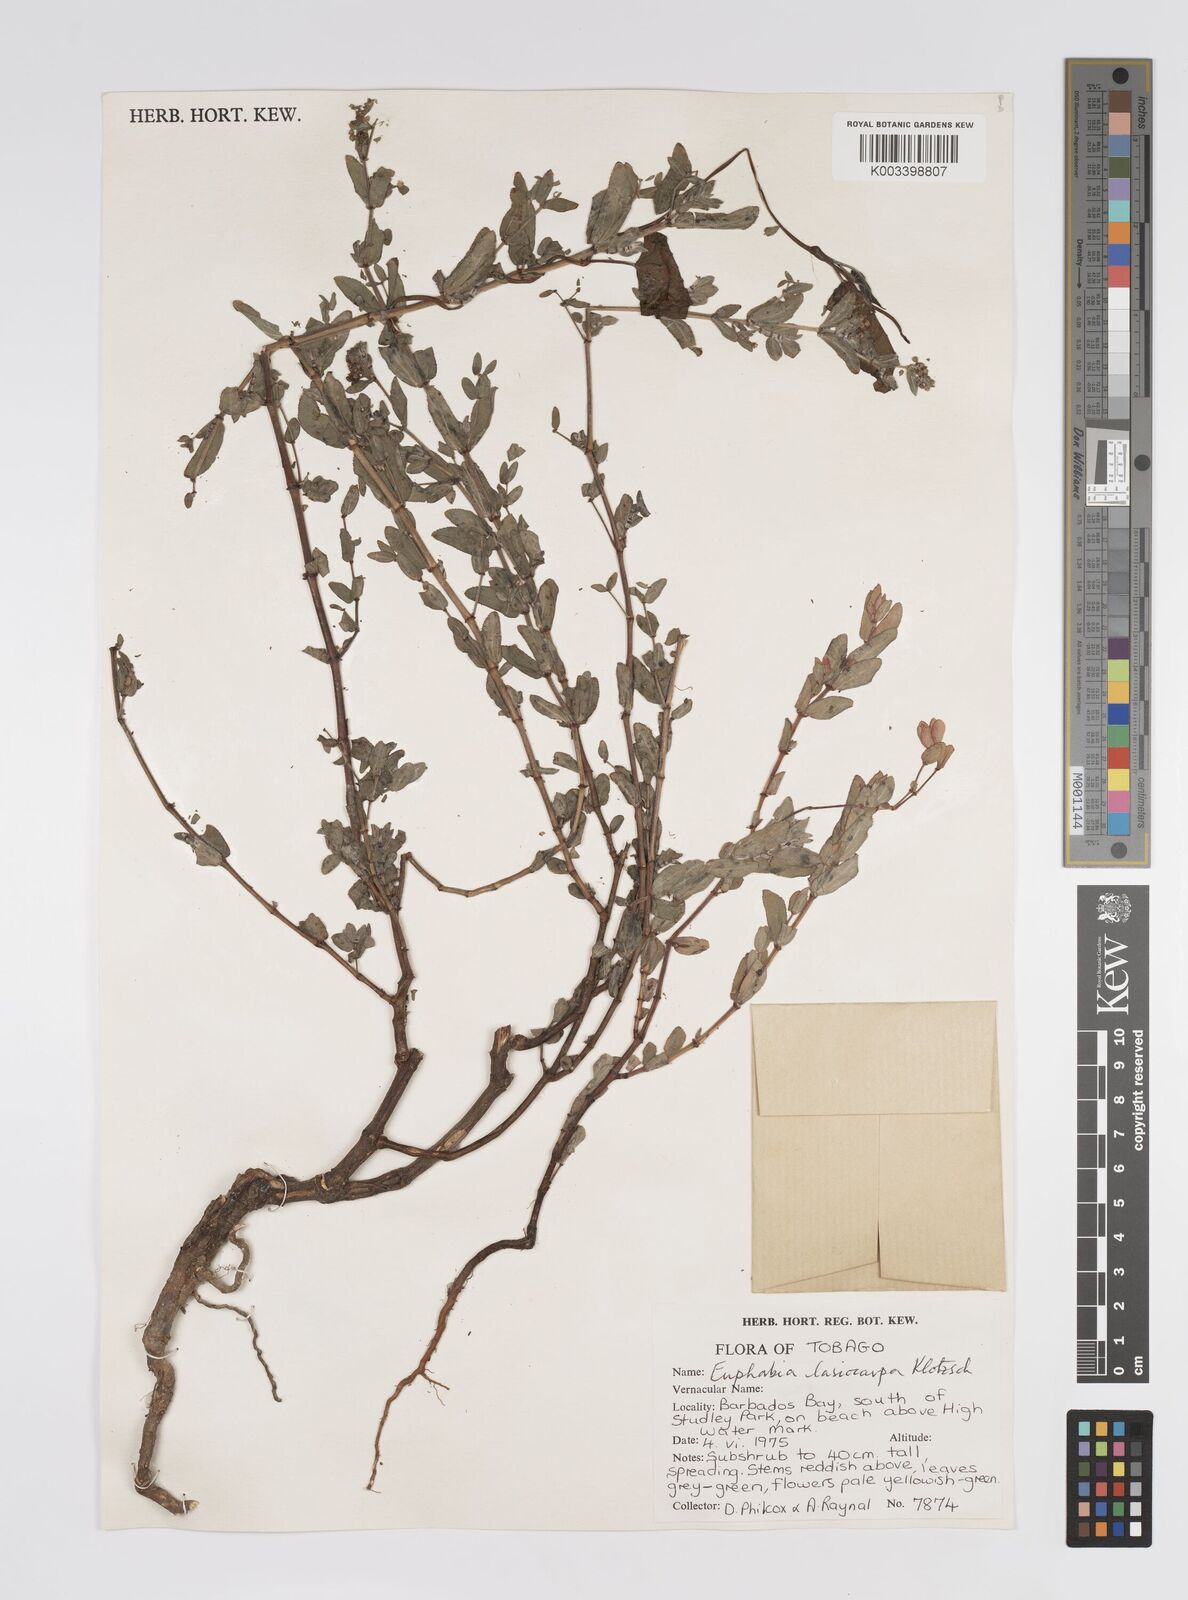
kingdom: Plantae
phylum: Tracheophyta
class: Magnoliopsida
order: Malpighiales
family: Euphorbiaceae
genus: Euphorbia
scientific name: Euphorbia lasiocarpa
